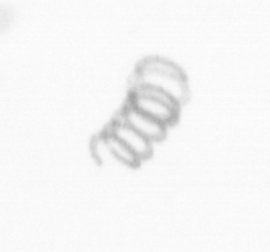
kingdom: Chromista
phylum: Ochrophyta
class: Bacillariophyceae
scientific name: Bacillariophyceae
